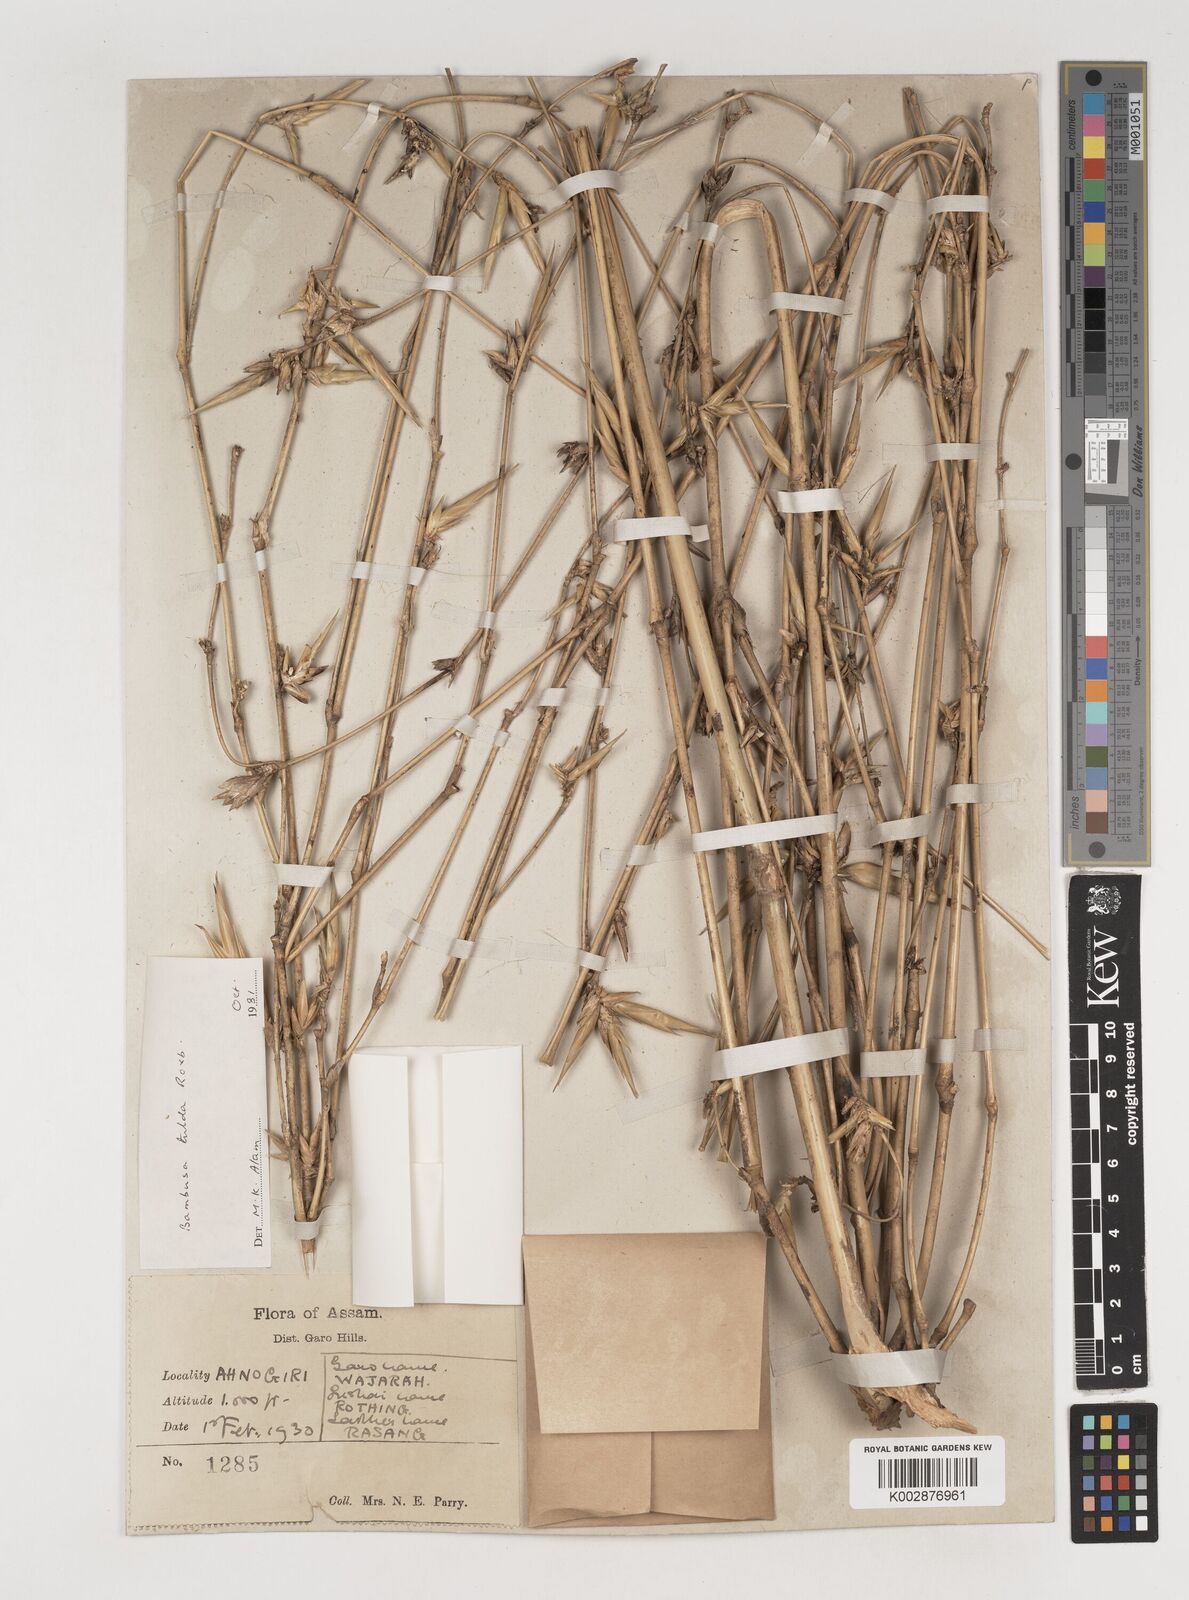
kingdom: Plantae
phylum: Tracheophyta
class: Liliopsida
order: Poales
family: Poaceae
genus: Bambusa
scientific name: Bambusa tulda
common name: Bengal bamboo
